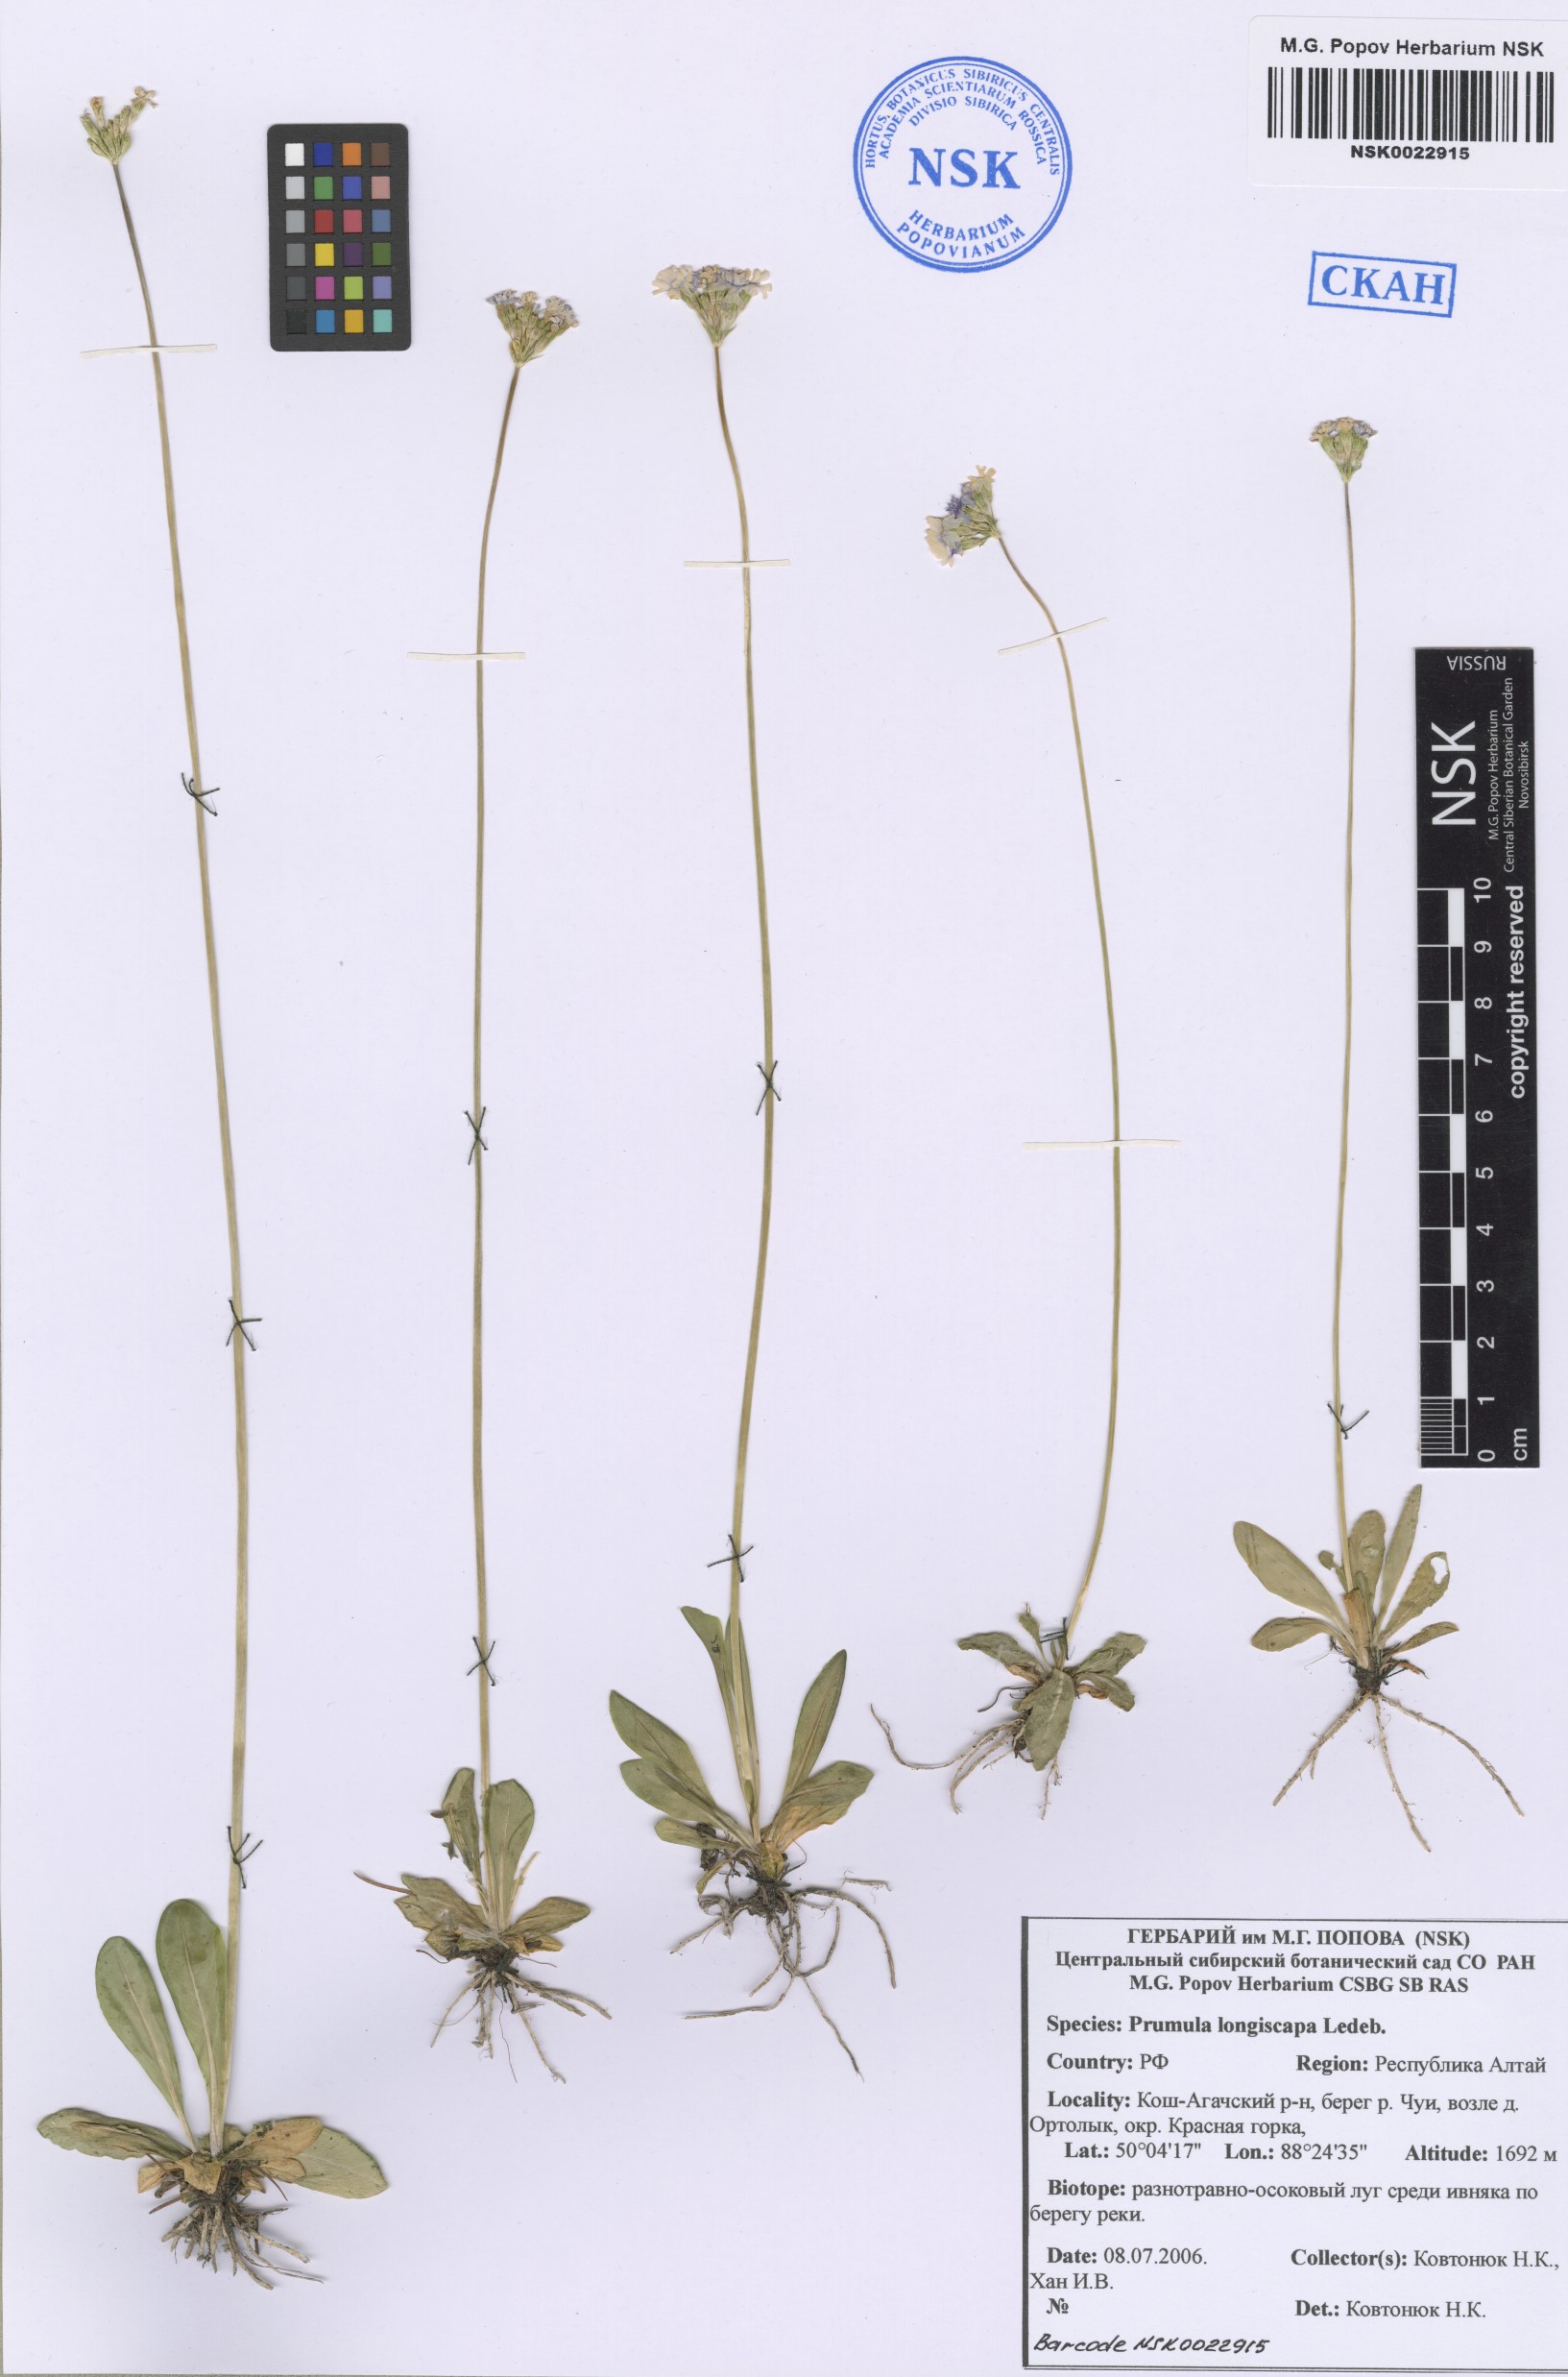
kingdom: Plantae
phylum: Tracheophyta
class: Magnoliopsida
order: Ericales
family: Primulaceae
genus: Primula
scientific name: Primula longiscapa
